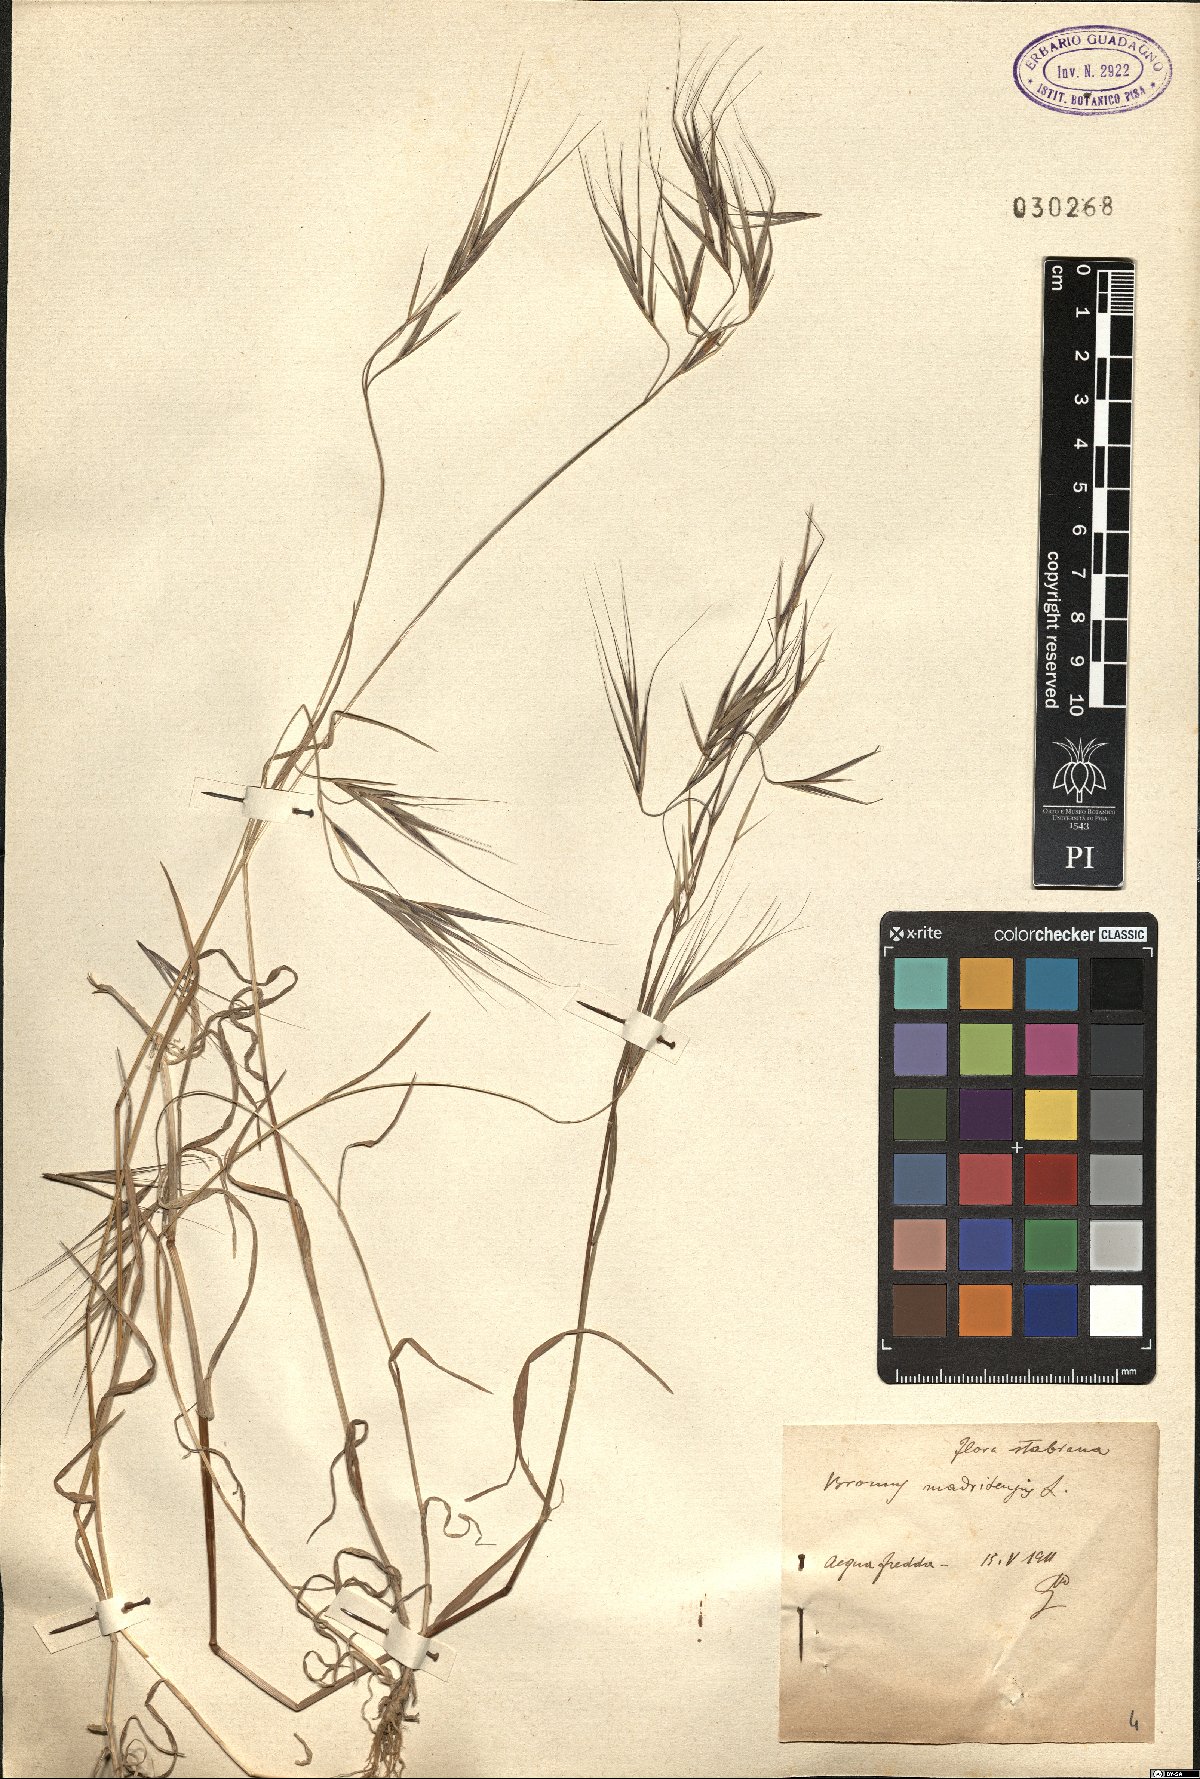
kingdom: Plantae
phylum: Tracheophyta
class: Liliopsida
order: Poales
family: Poaceae
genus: Bromus
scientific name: Bromus madritensis
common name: Compact brome
